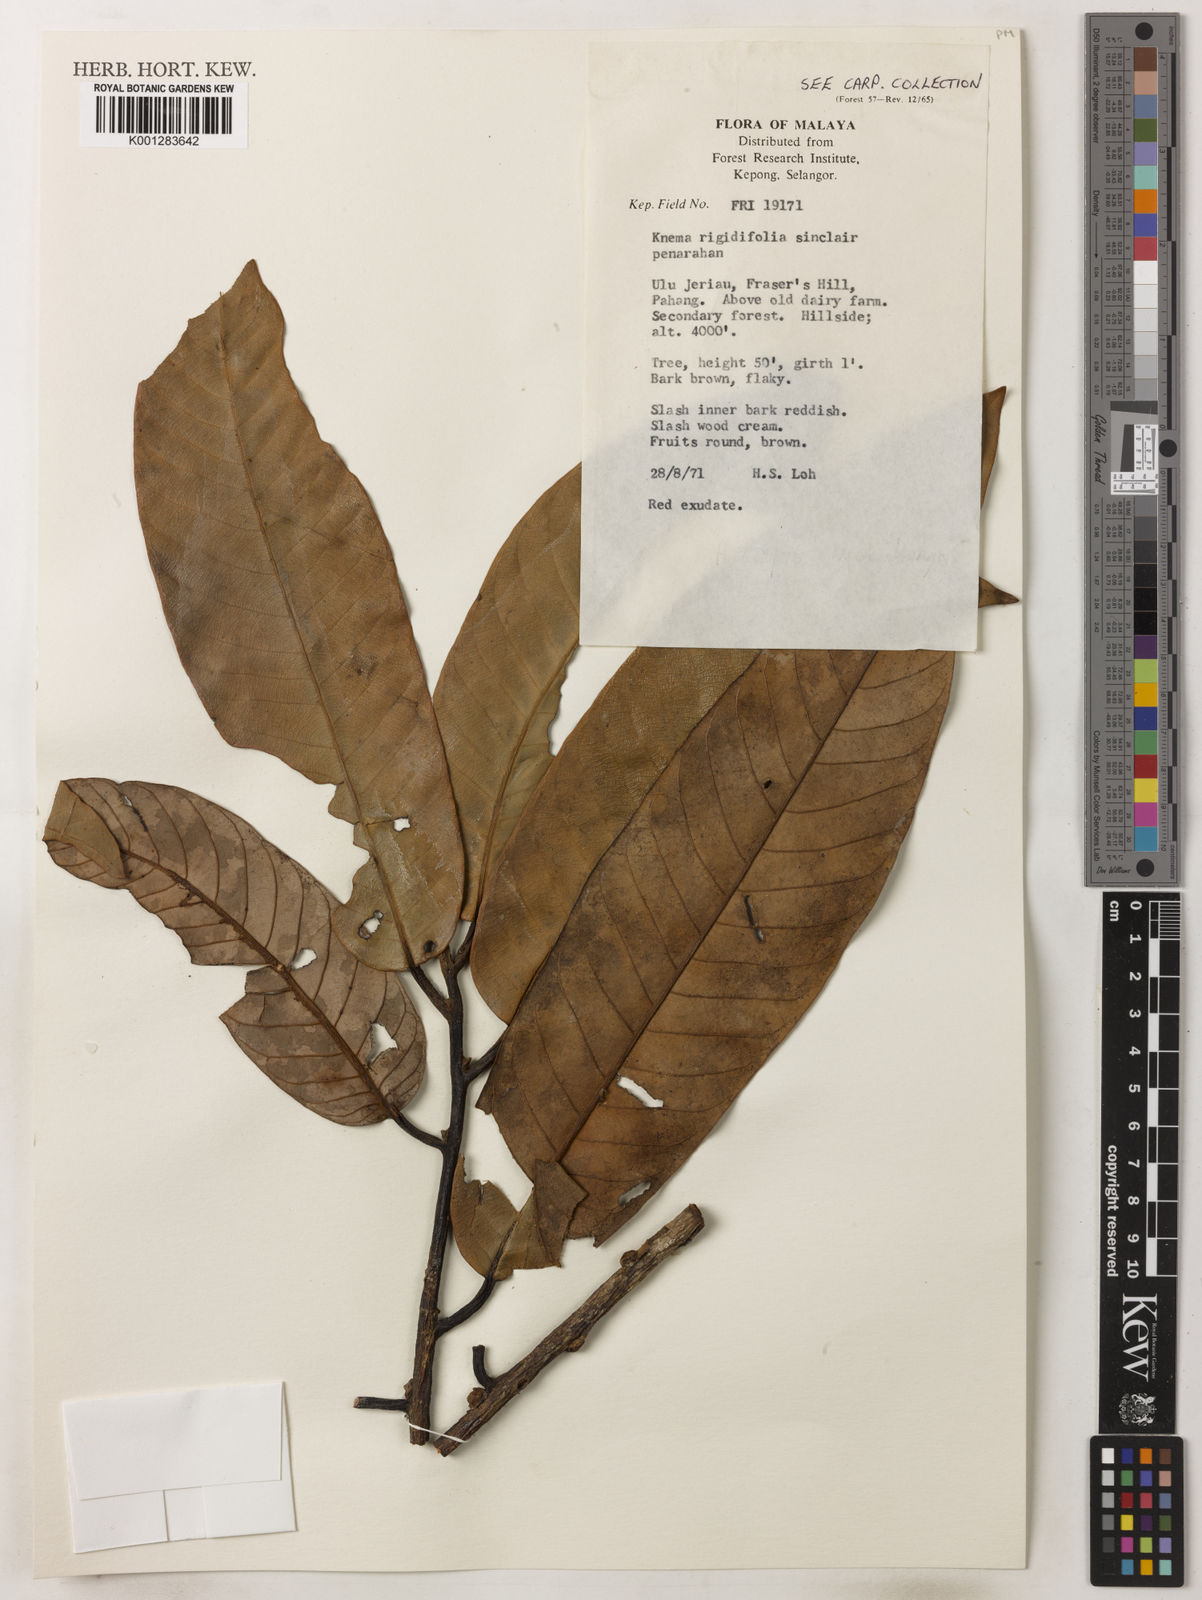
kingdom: Plantae
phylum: Tracheophyta
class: Magnoliopsida
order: Magnoliales
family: Myristicaceae
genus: Knema
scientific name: Knema rigidifolia
